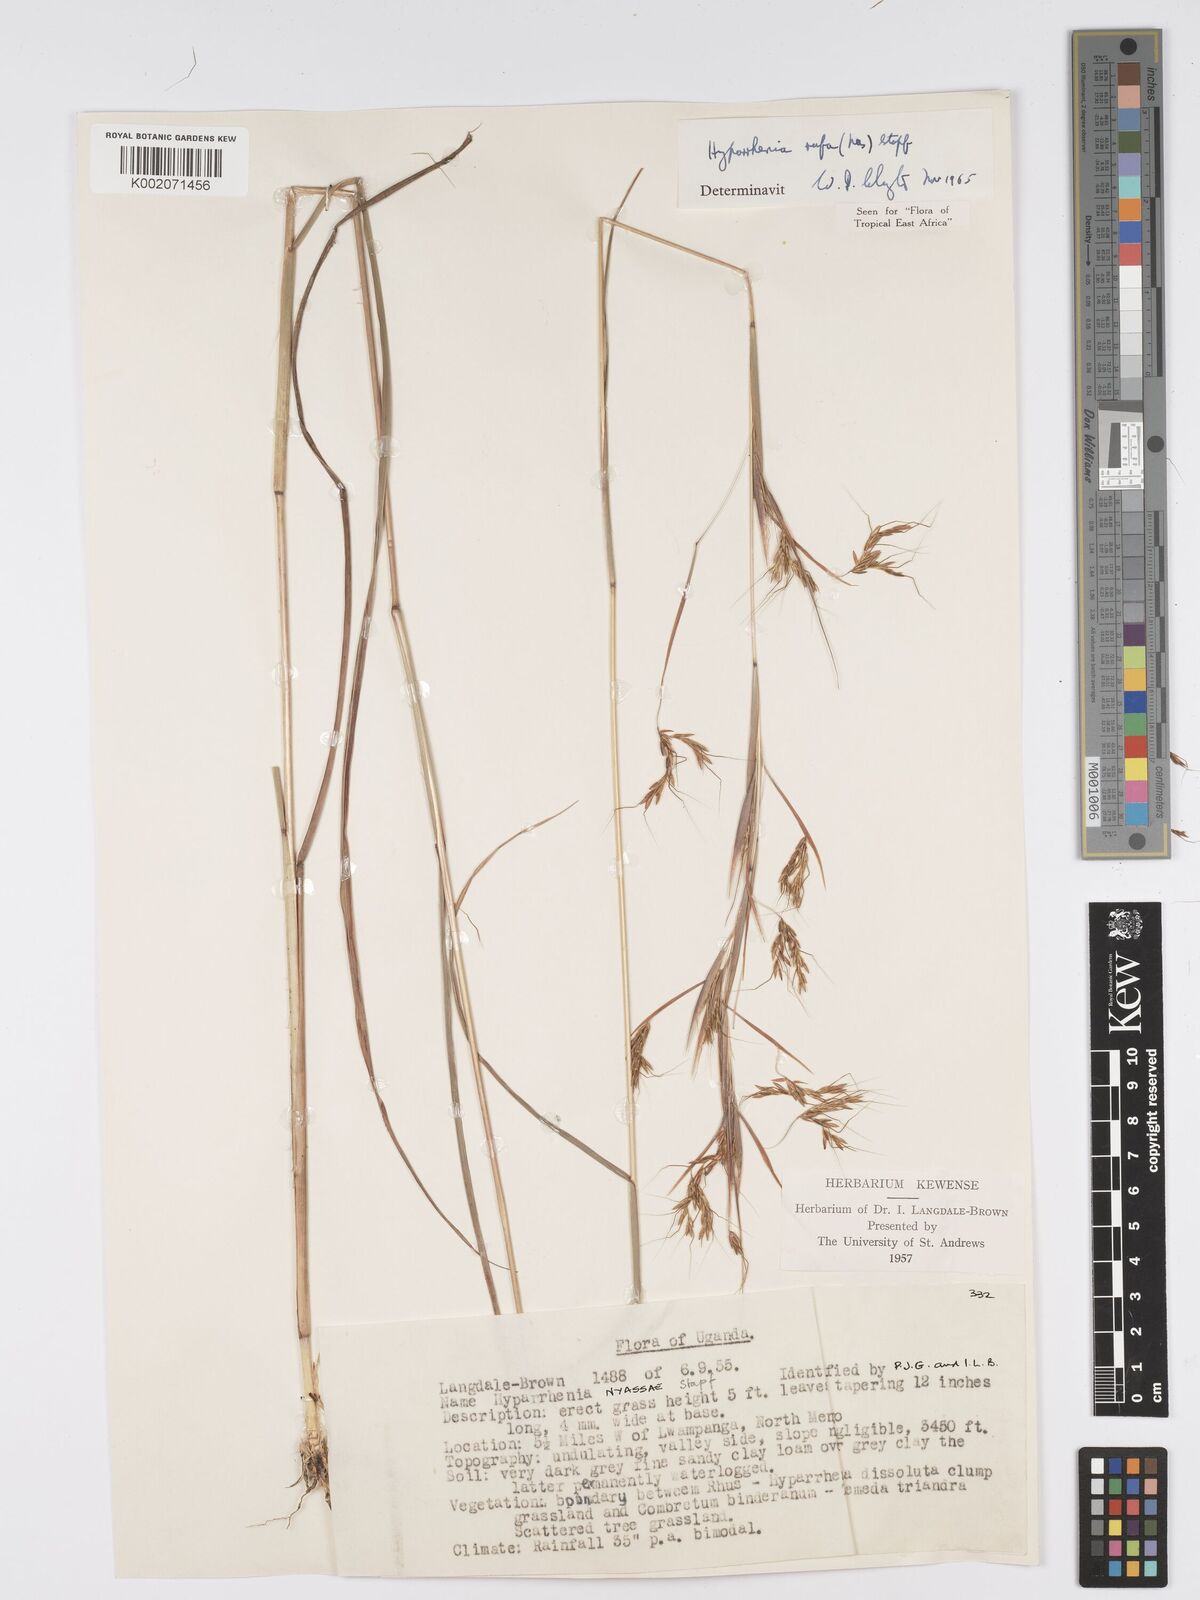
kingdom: Plantae
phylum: Tracheophyta
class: Liliopsida
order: Poales
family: Poaceae
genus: Hyparrhenia
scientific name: Hyparrhenia rufa
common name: Jaraguagrass
